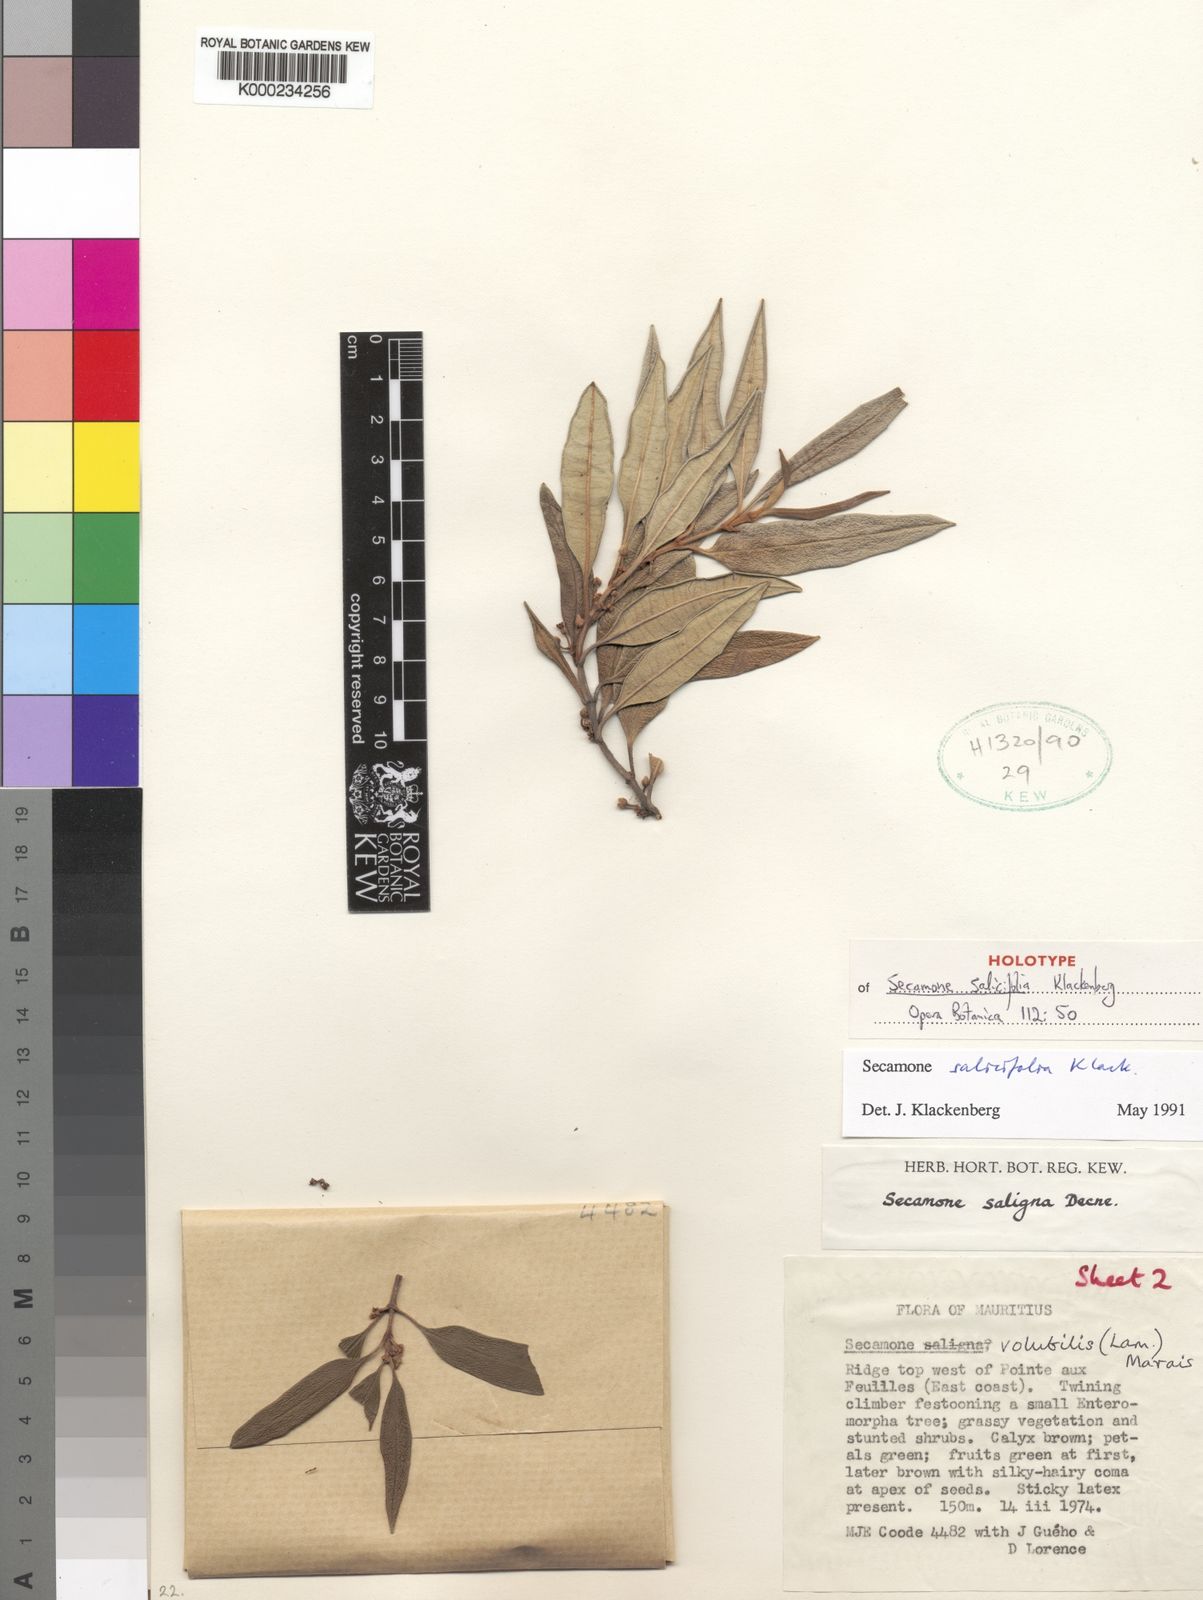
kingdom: Plantae
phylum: Tracheophyta
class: Magnoliopsida
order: Gentianales
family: Apocynaceae
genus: Secamone
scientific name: Secamone volubilis
